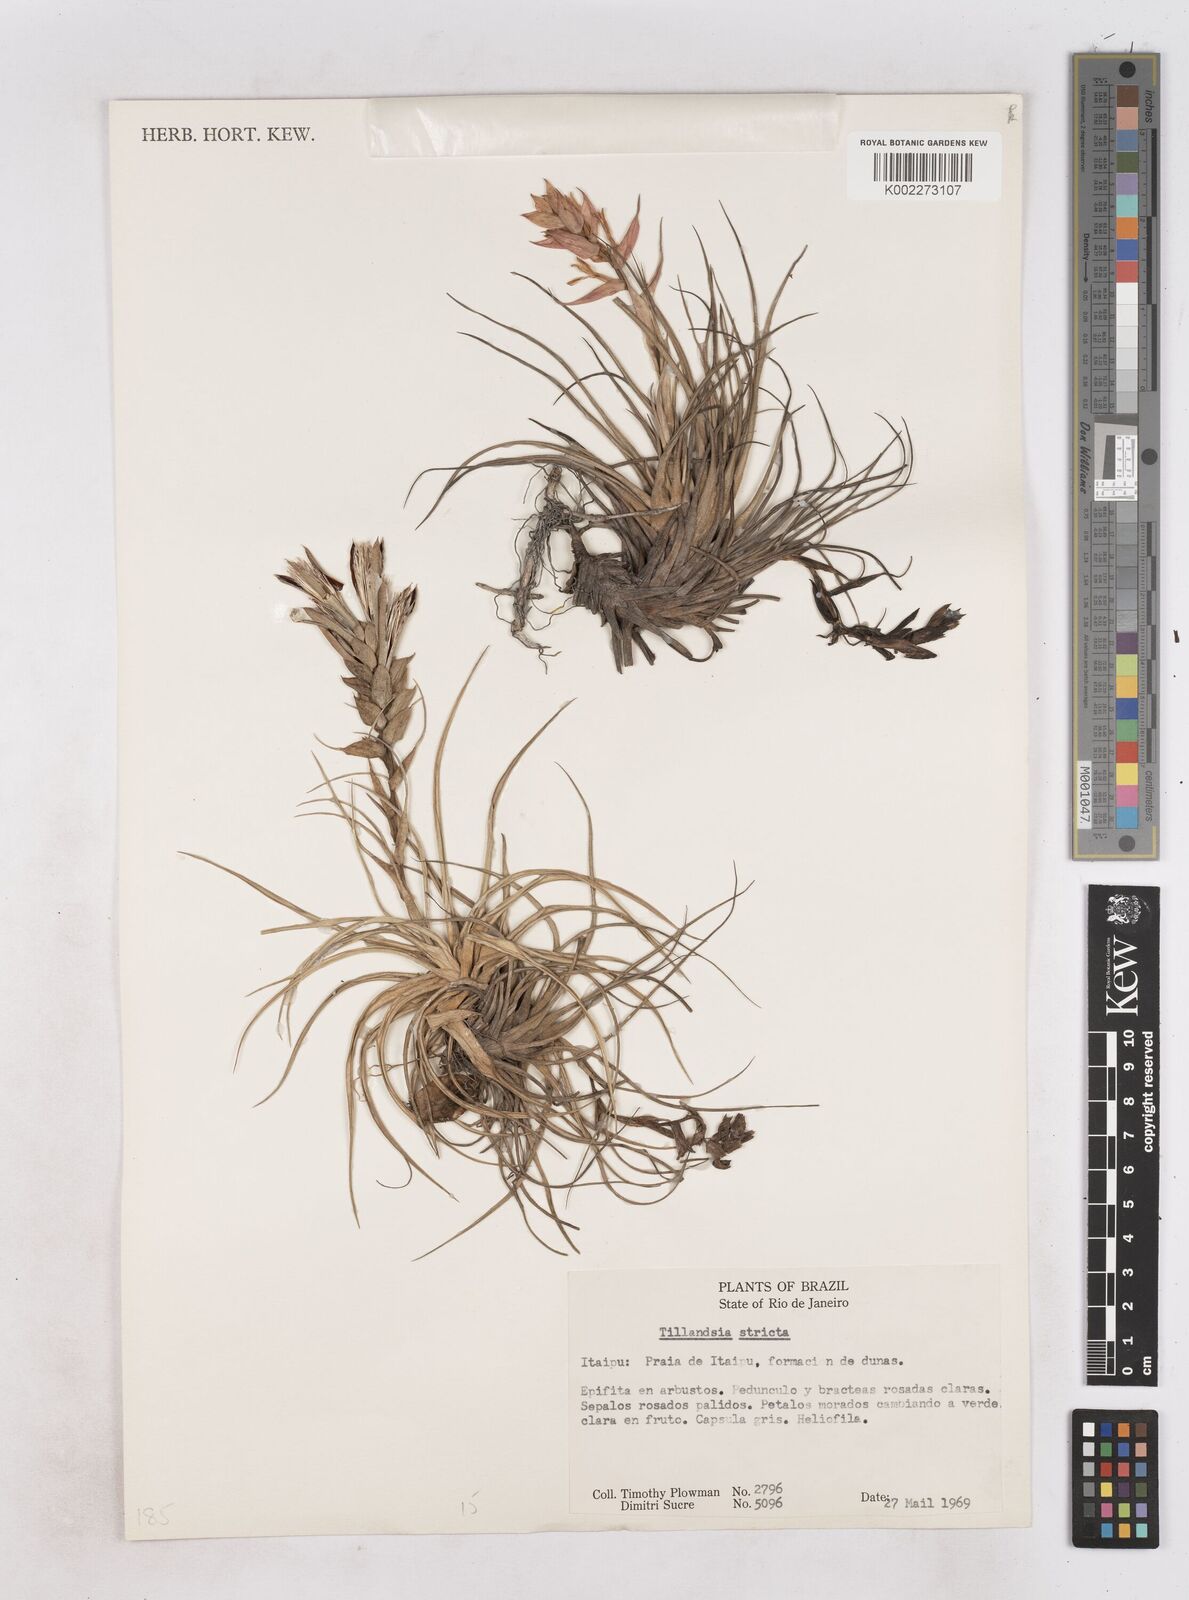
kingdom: Plantae
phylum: Tracheophyta
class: Liliopsida
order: Poales
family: Bromeliaceae
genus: Tillandsia
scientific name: Tillandsia stricta
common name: Airplant
